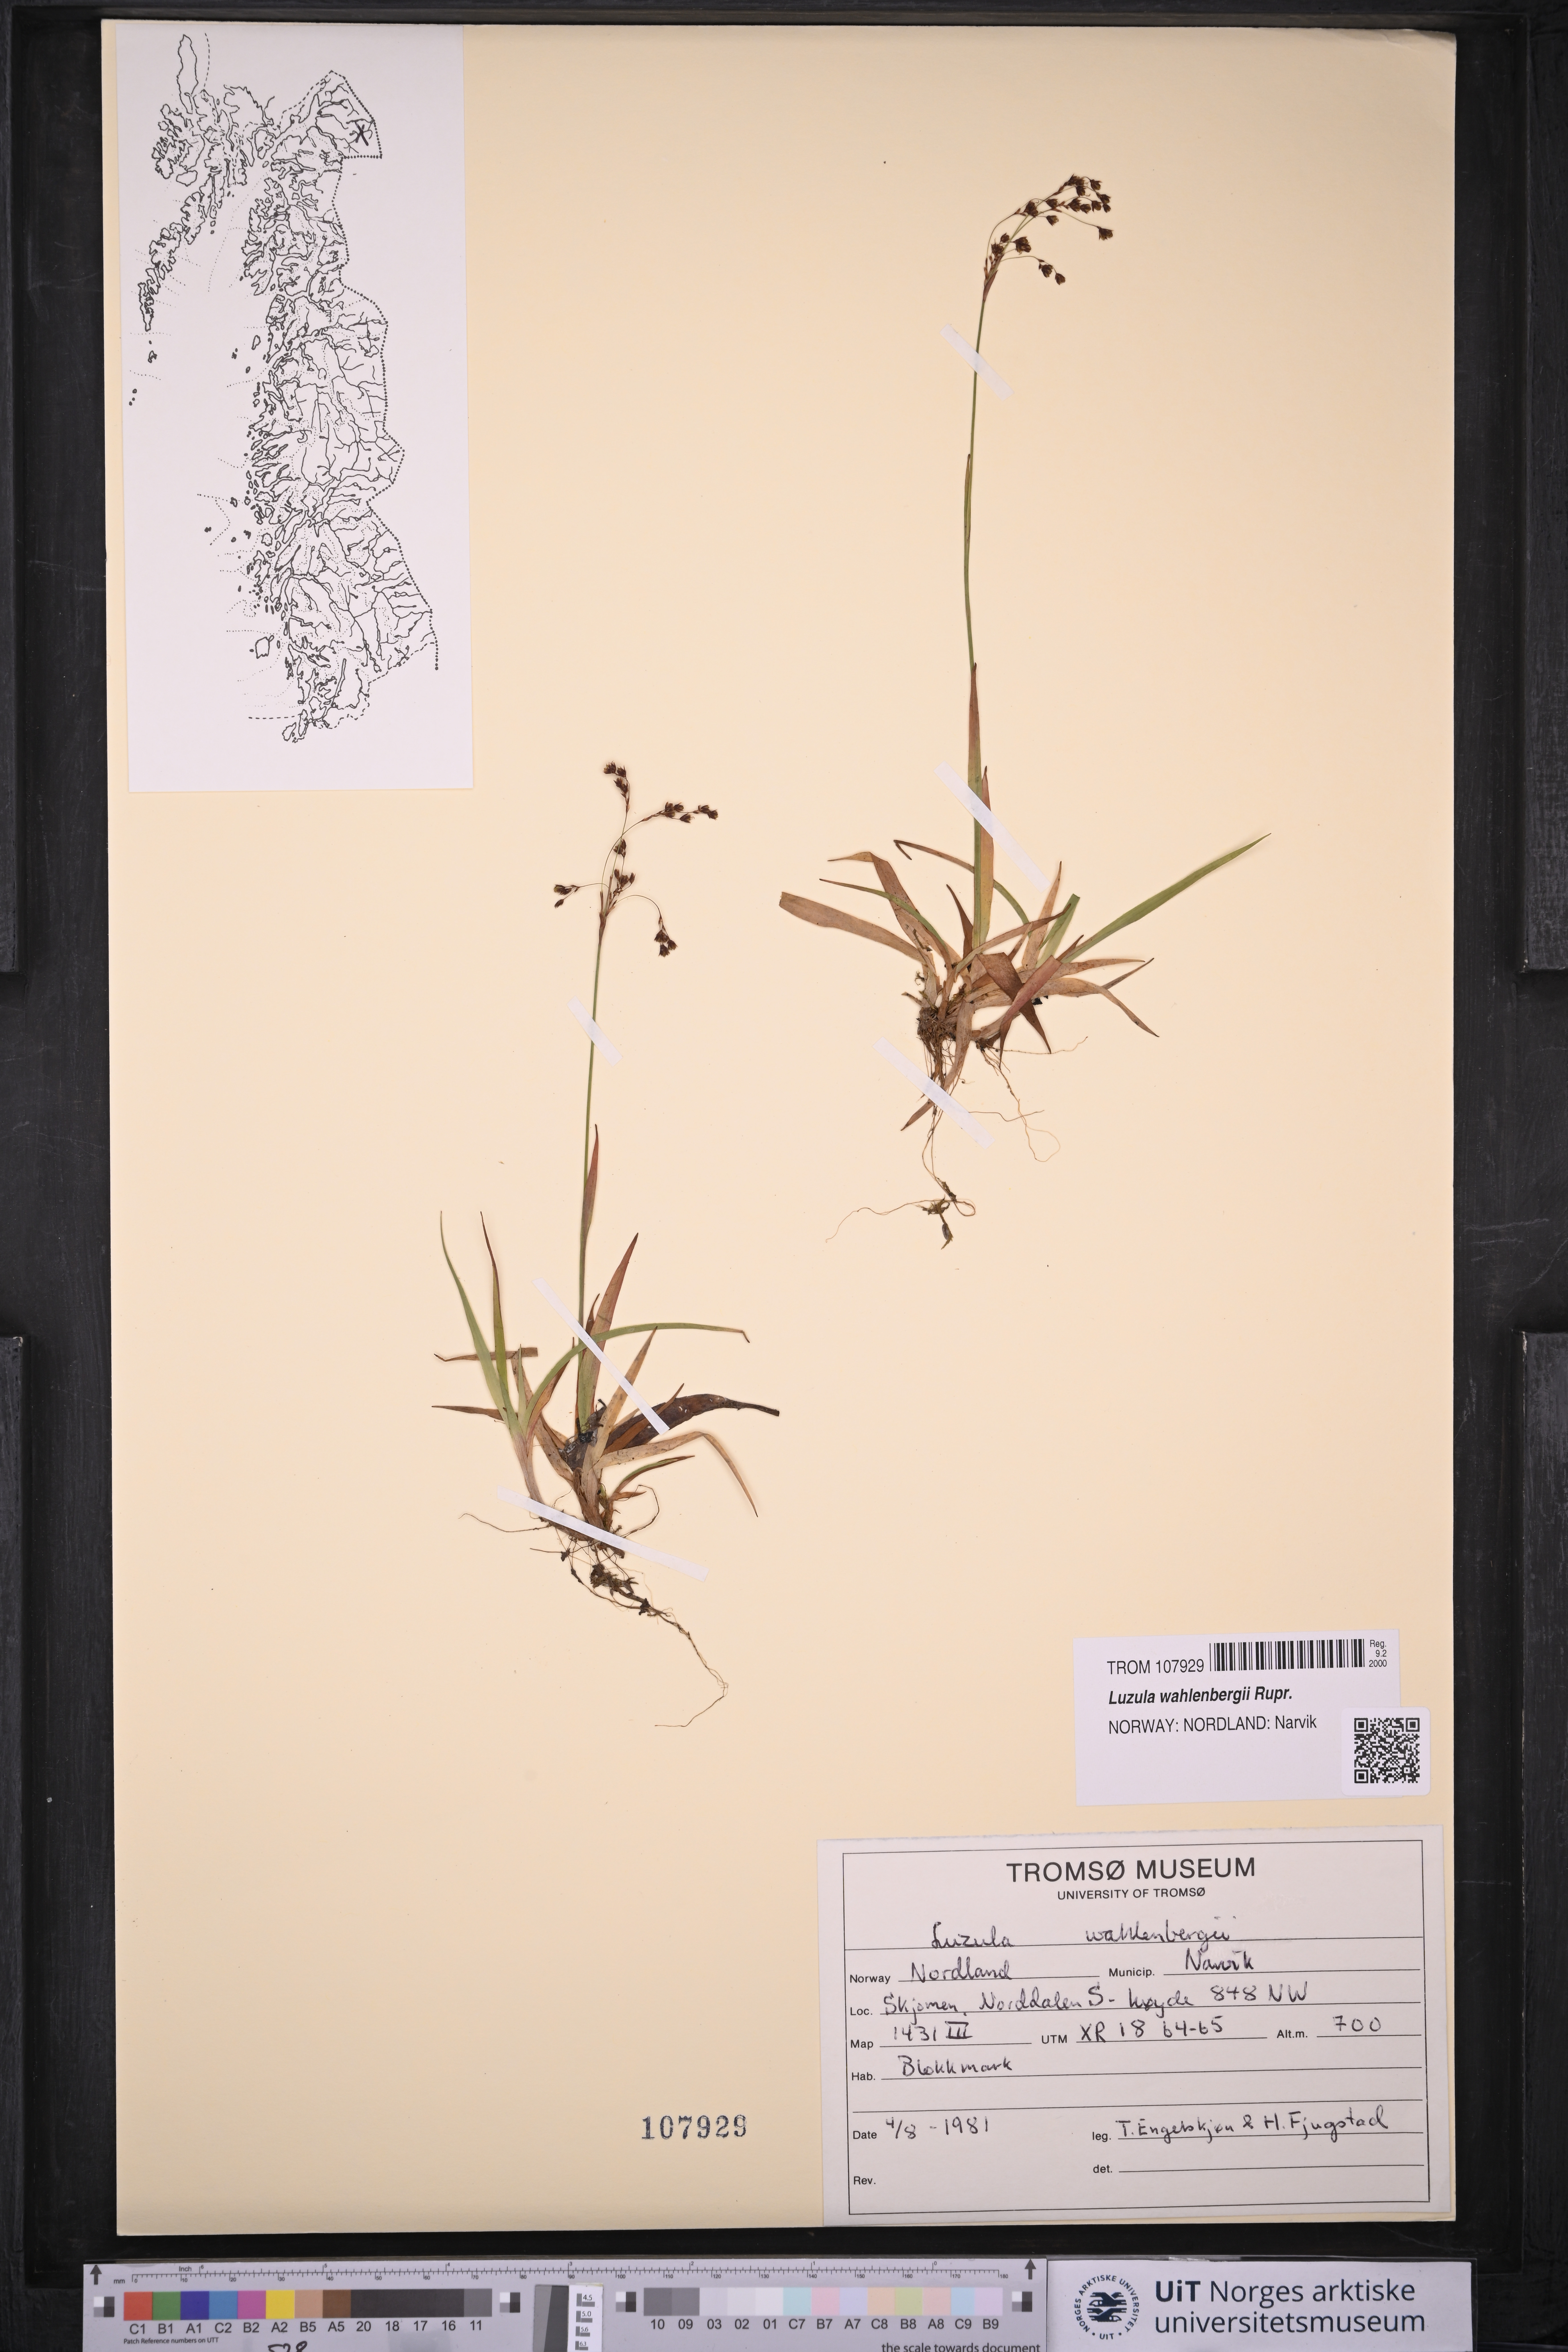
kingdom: Plantae
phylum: Tracheophyta
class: Liliopsida
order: Poales
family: Juncaceae
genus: Luzula
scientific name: Luzula wahlenbergii
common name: Wahlenberg's wood-rush
